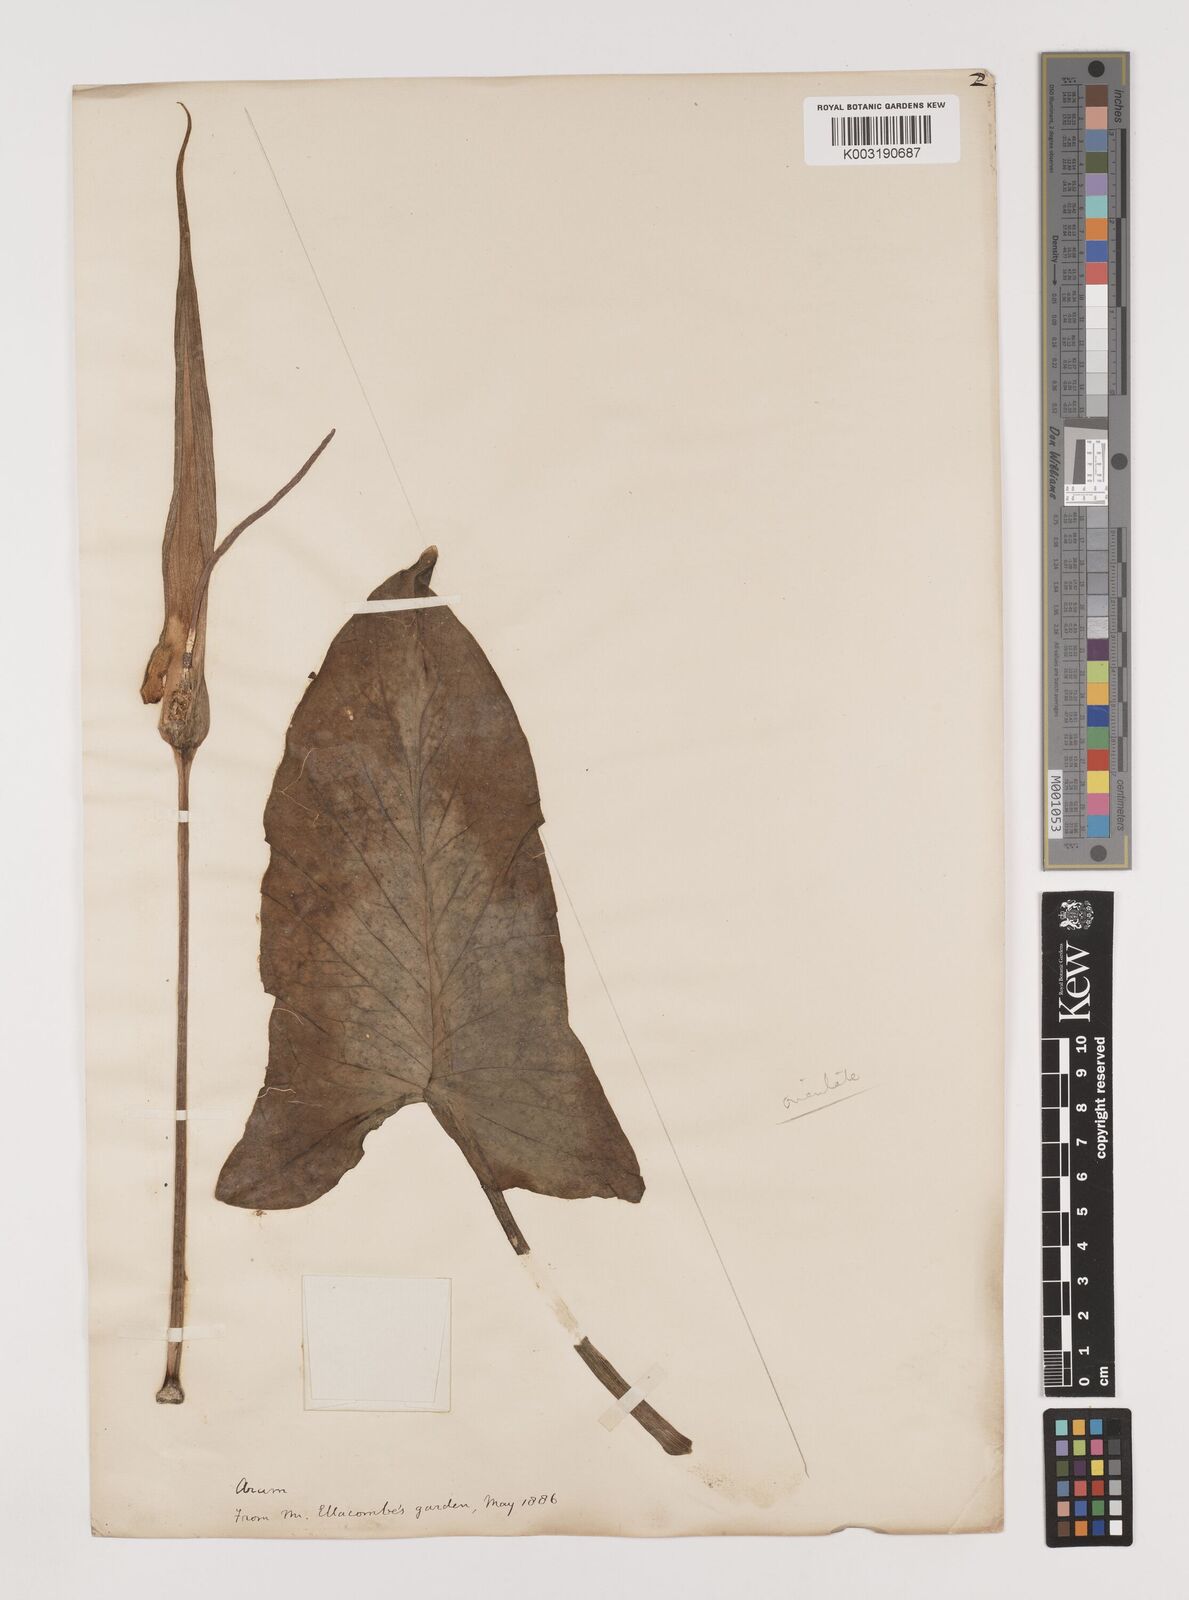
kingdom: Plantae
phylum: Tracheophyta
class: Liliopsida
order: Alismatales
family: Araceae
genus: Arum
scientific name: Arum rupicola
